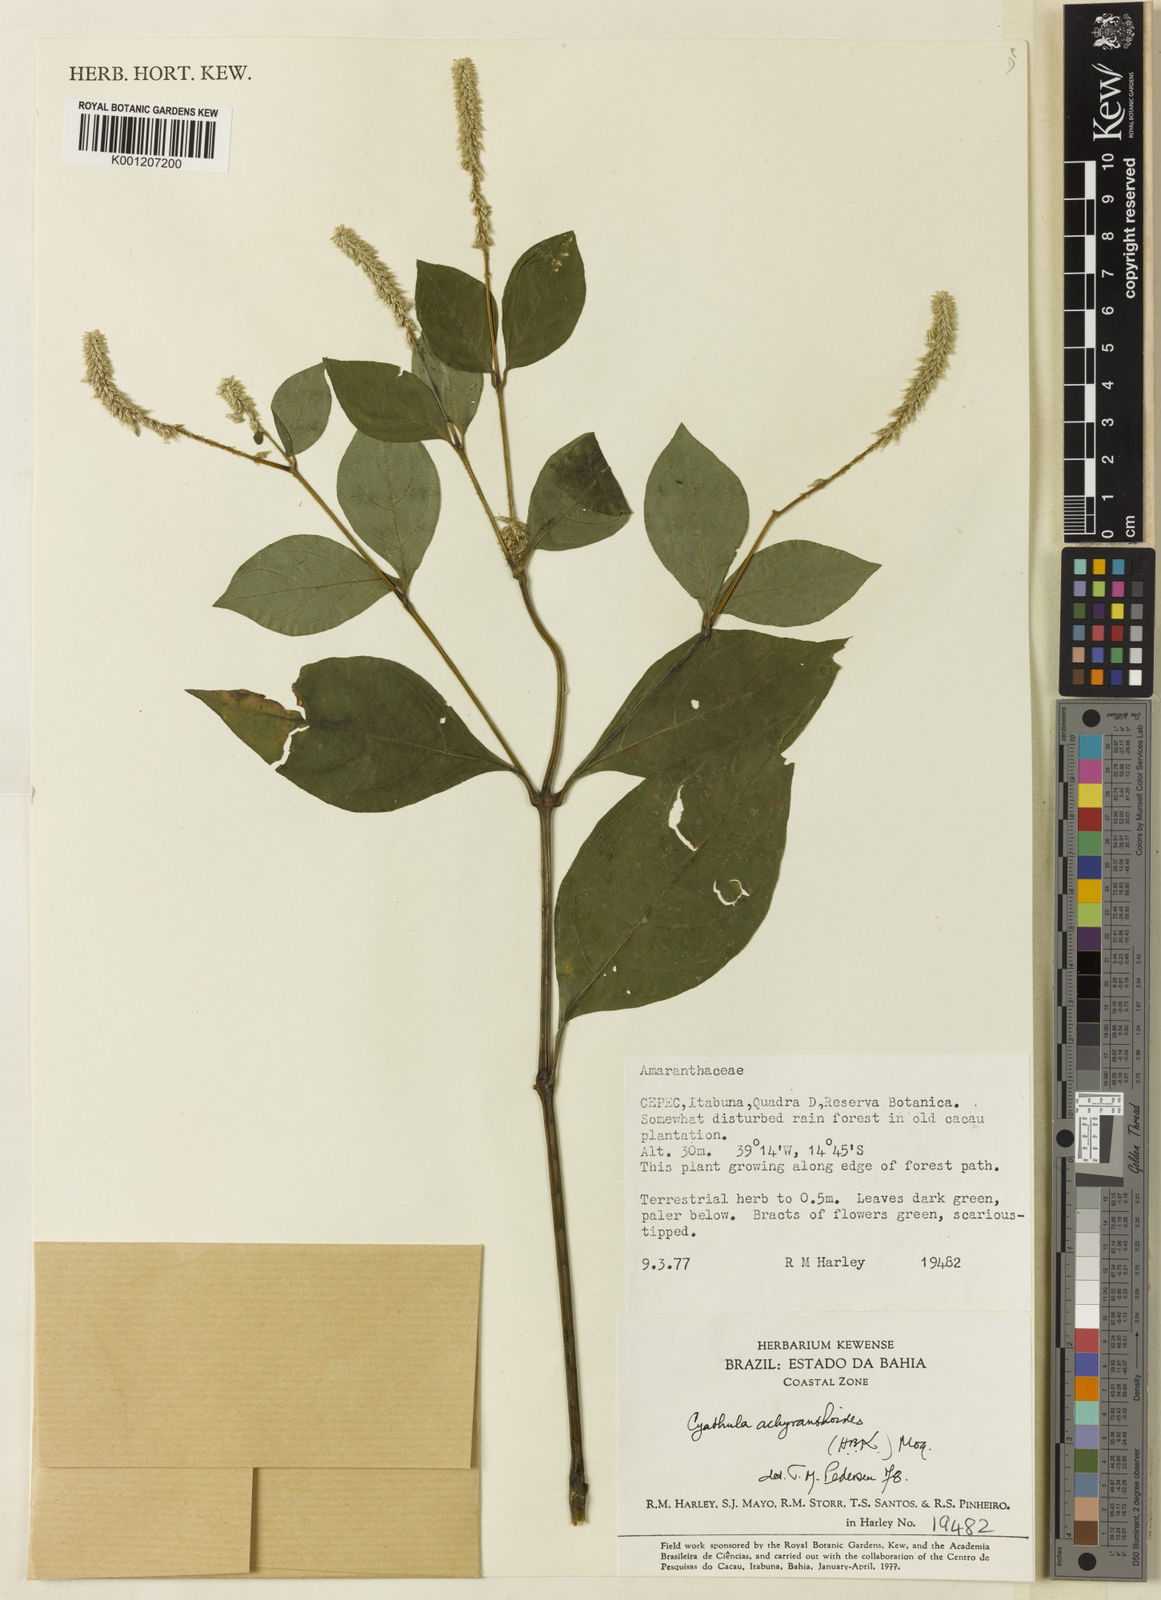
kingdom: Plantae
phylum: Tracheophyta
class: Magnoliopsida
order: Caryophyllales
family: Amaranthaceae
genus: Cyathula
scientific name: Cyathula achyranthoides
